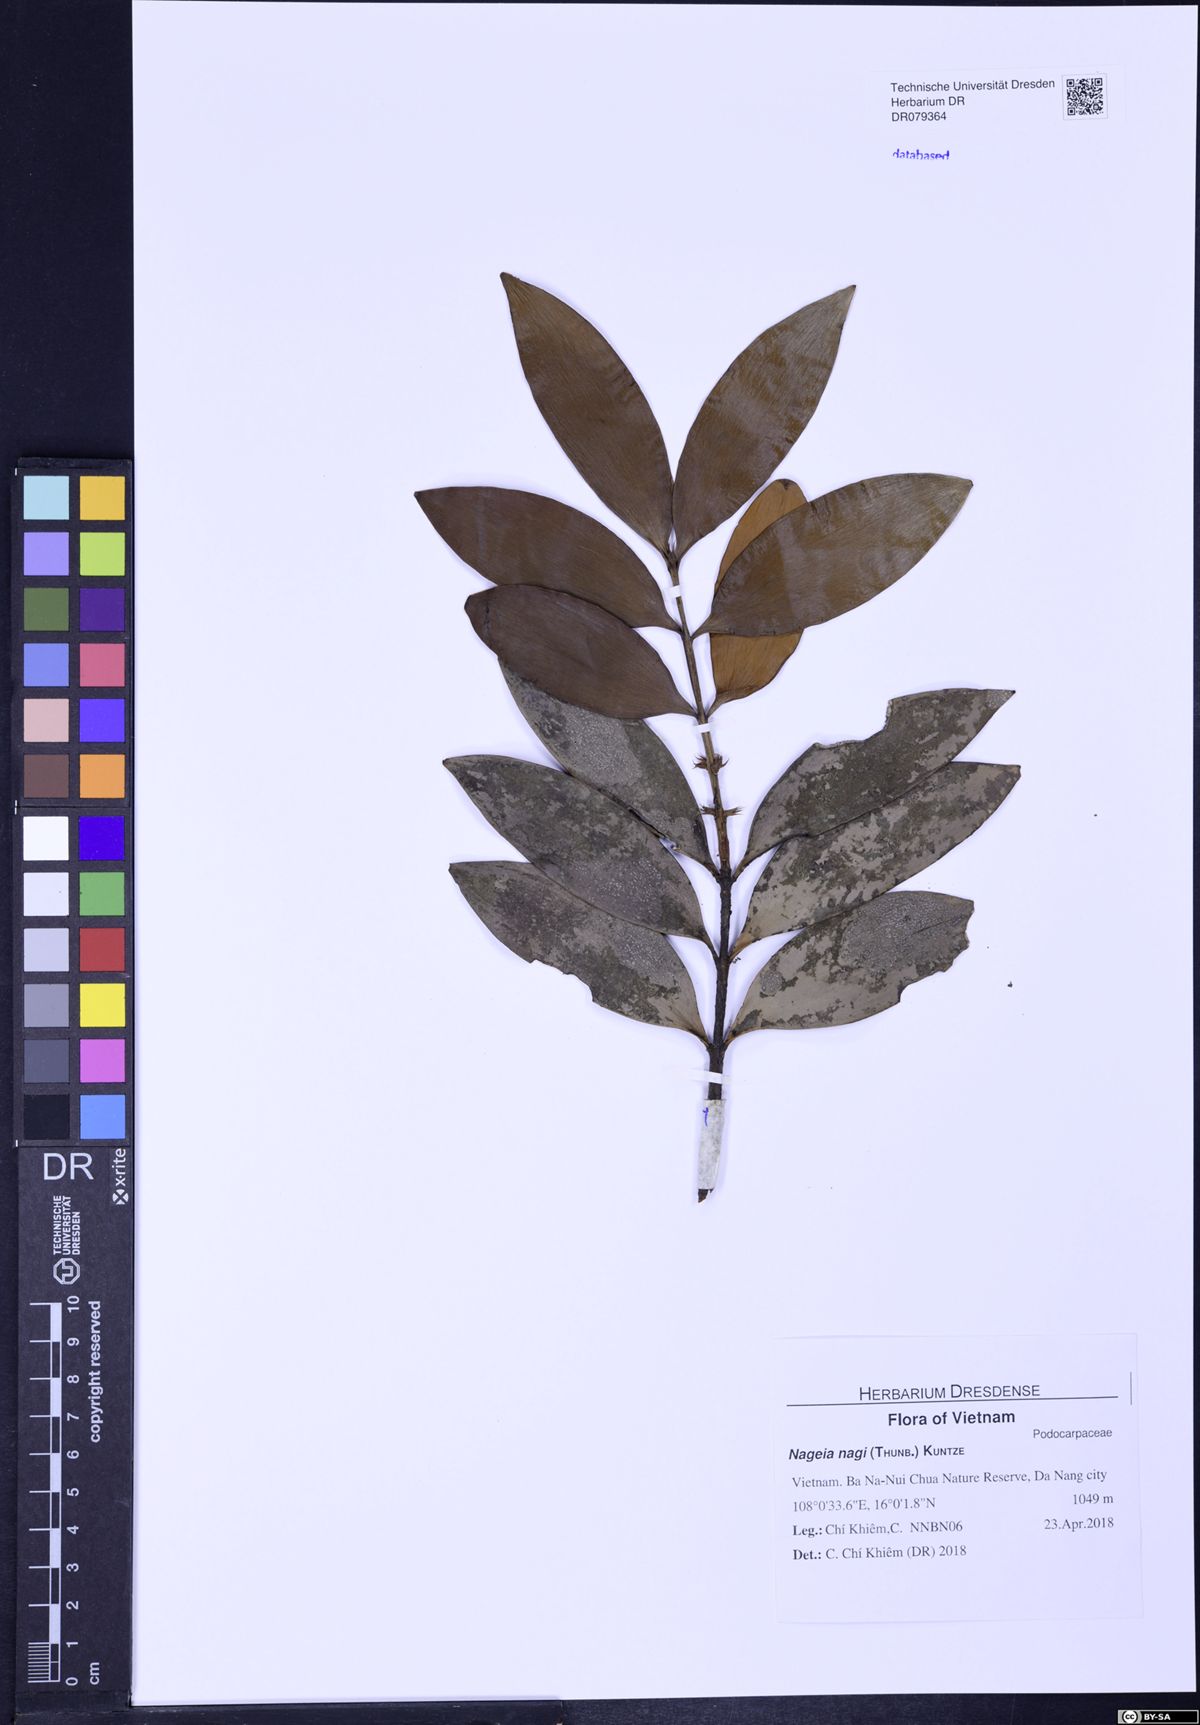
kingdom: Plantae
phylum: Tracheophyta
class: Pinopsida
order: Pinales
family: Podocarpaceae
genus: Nageia
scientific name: Nageia nagi
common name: Kaphal
